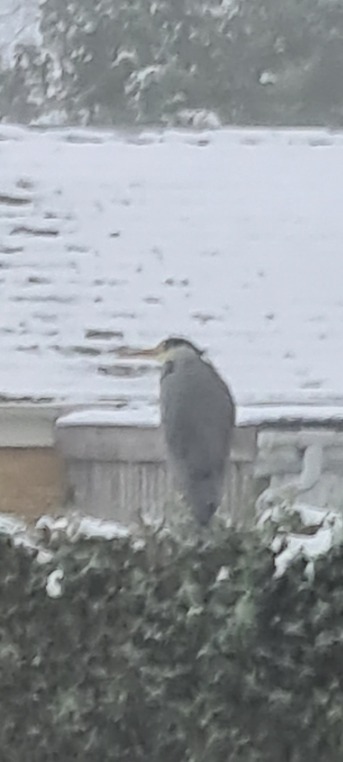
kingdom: Animalia
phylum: Chordata
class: Aves
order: Pelecaniformes
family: Ardeidae
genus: Ardea
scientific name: Ardea cinerea
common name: Fiskehejre
